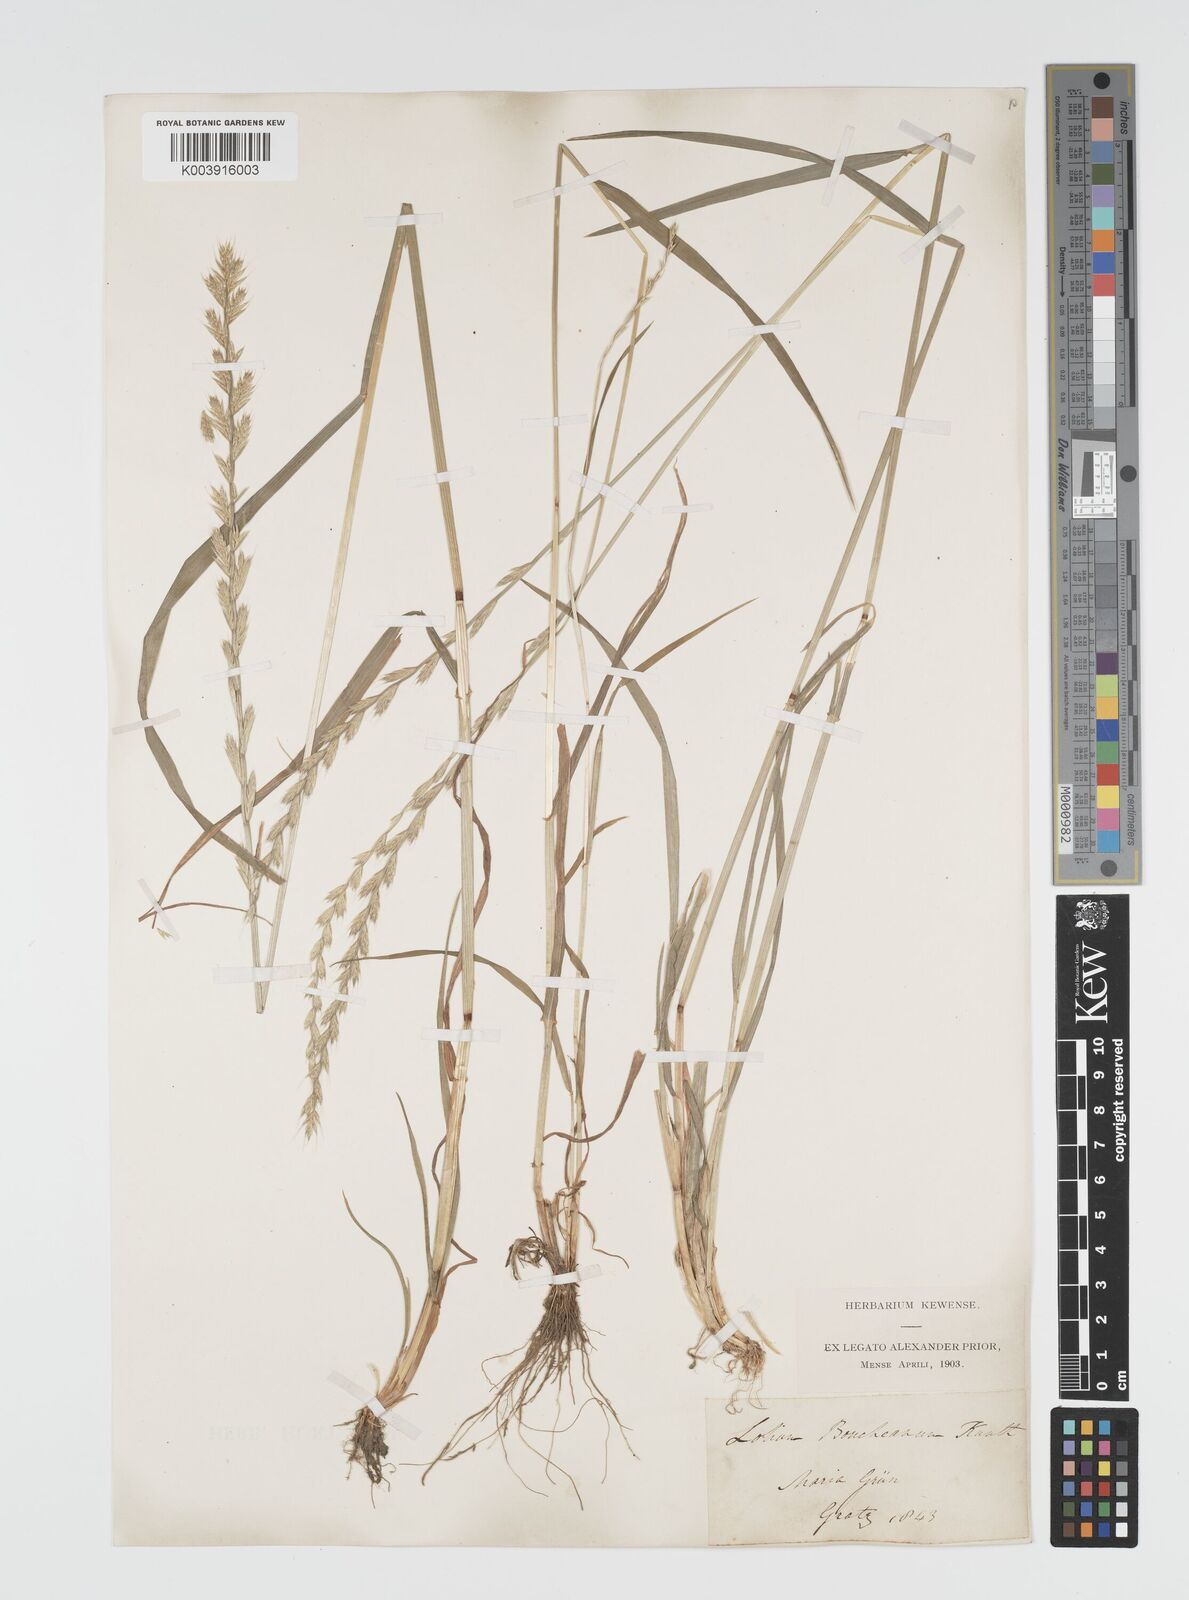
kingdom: Plantae
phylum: Tracheophyta
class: Liliopsida
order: Poales
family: Poaceae
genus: Lolium
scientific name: Lolium multiflorum
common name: Annual ryegrass
